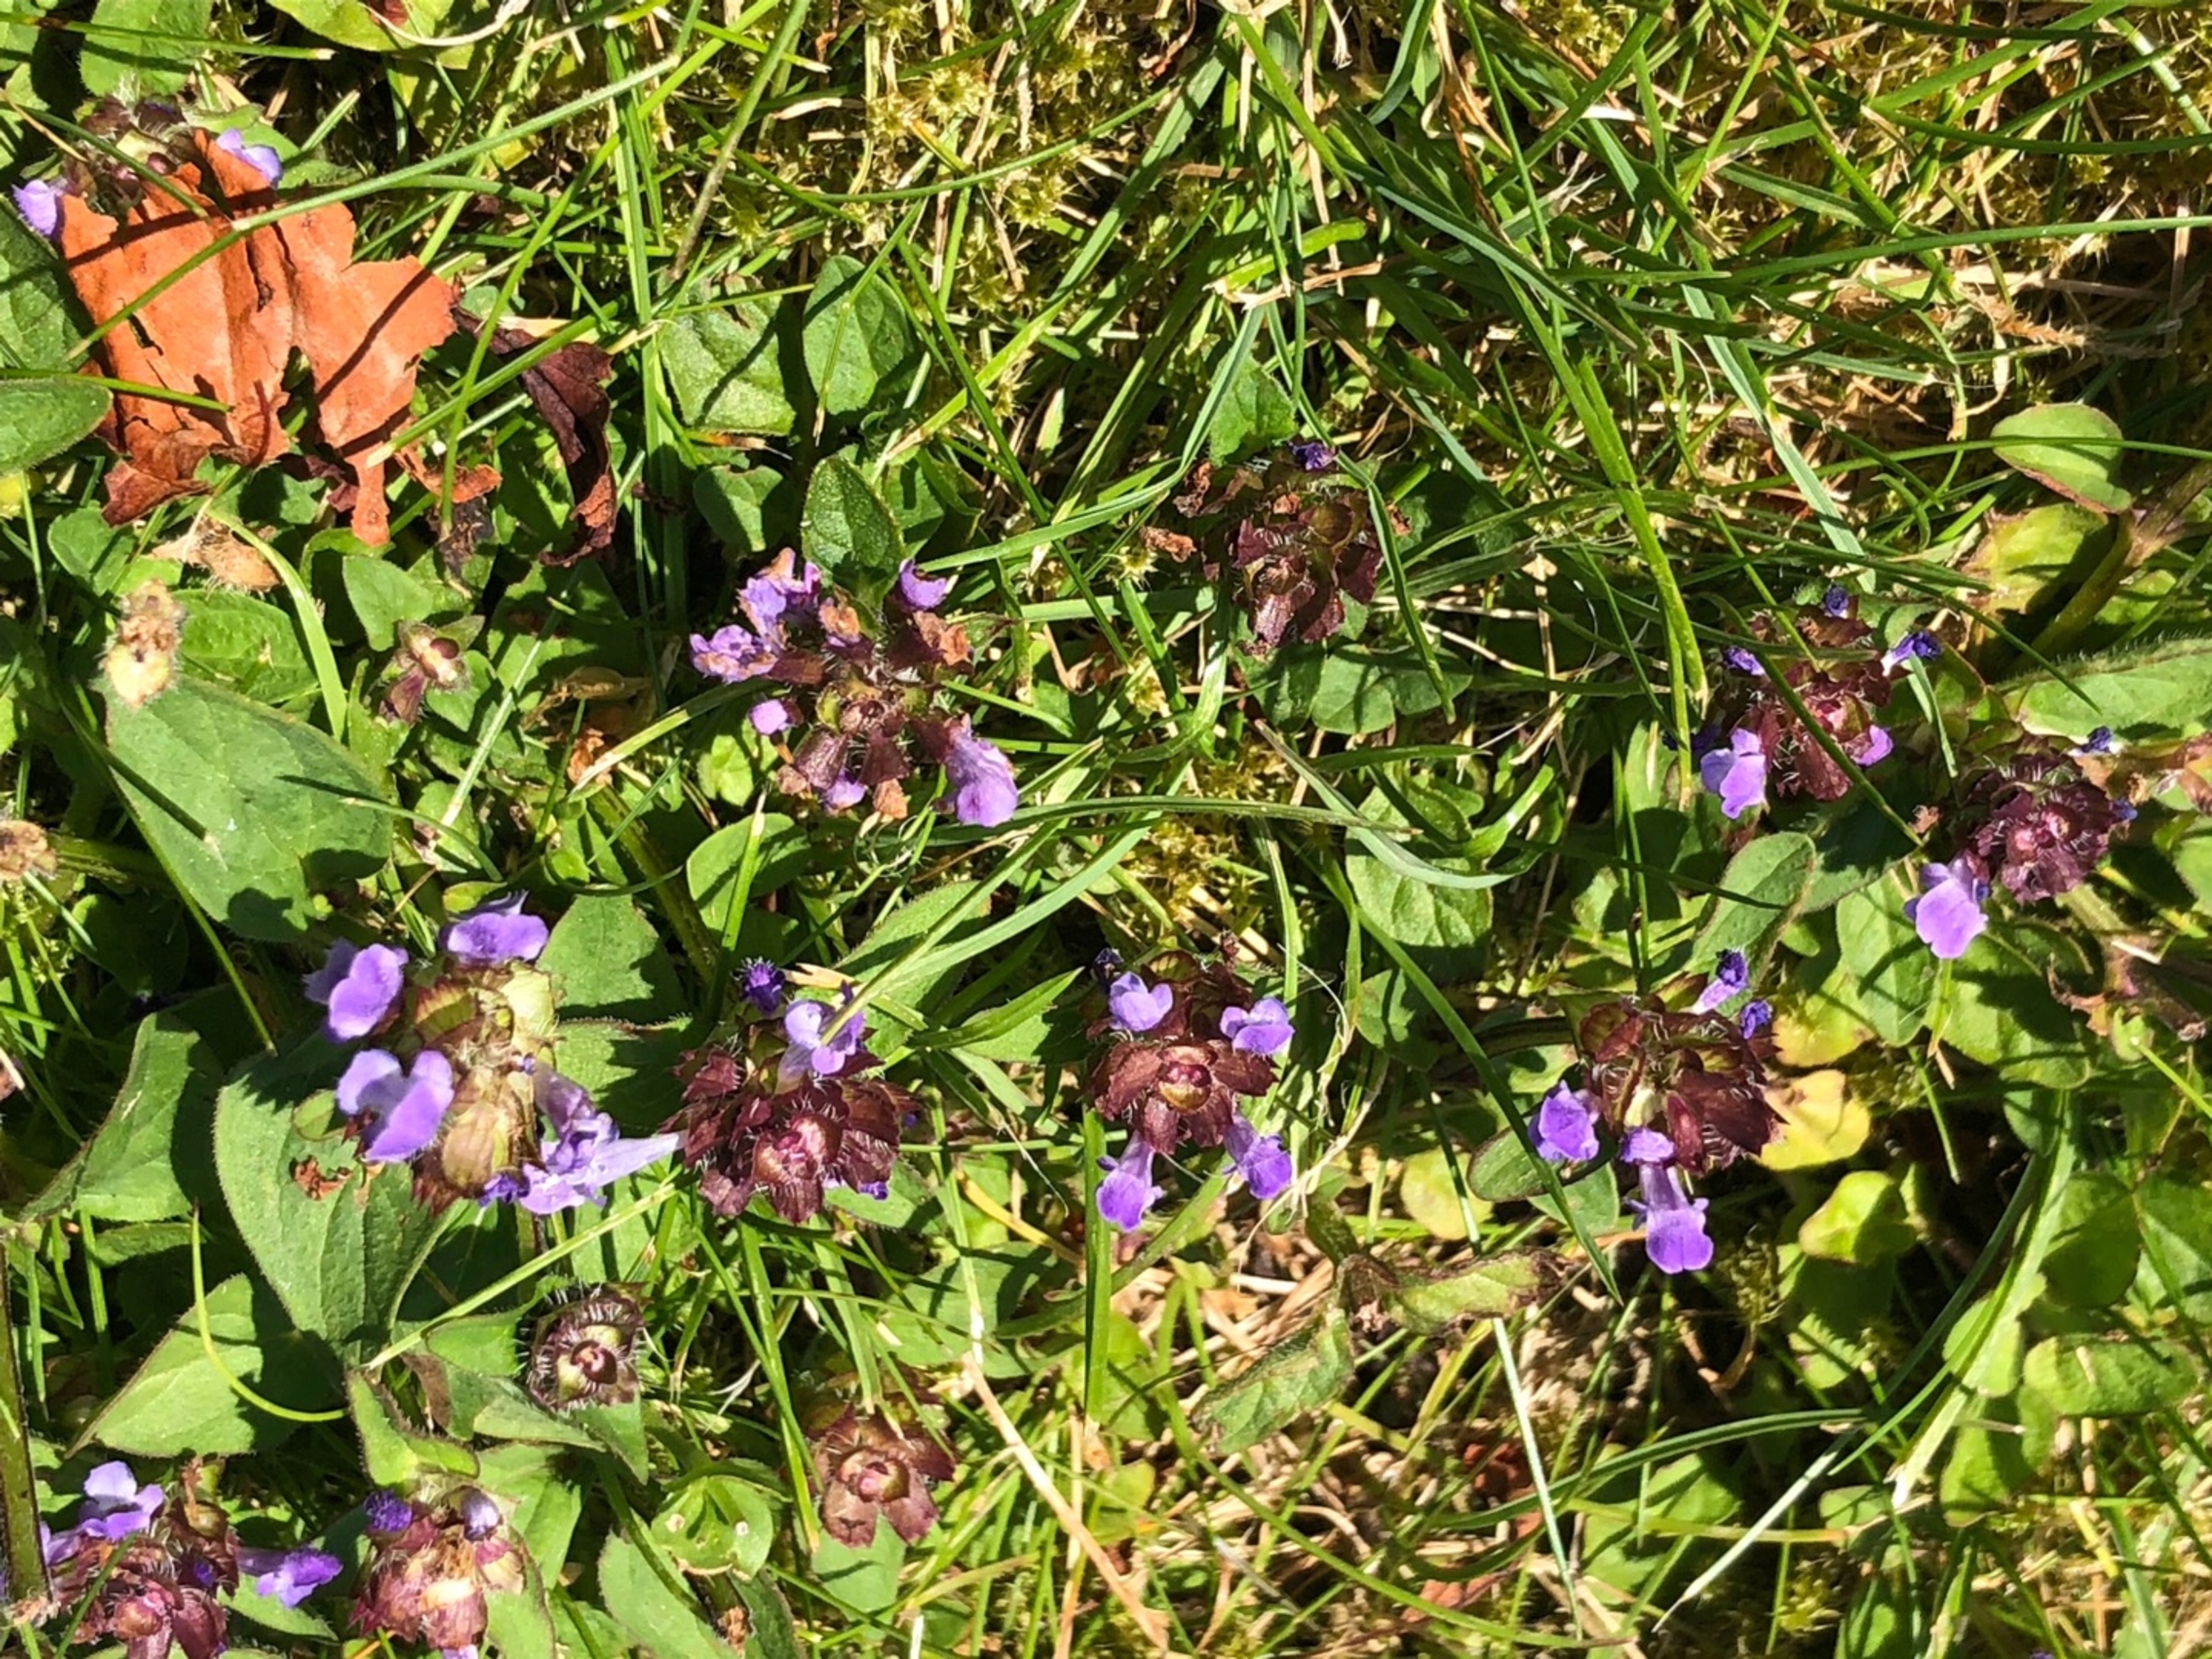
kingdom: Plantae
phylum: Tracheophyta
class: Magnoliopsida
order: Lamiales
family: Lamiaceae
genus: Prunella
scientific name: Prunella vulgaris
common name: Almindelig brunelle
